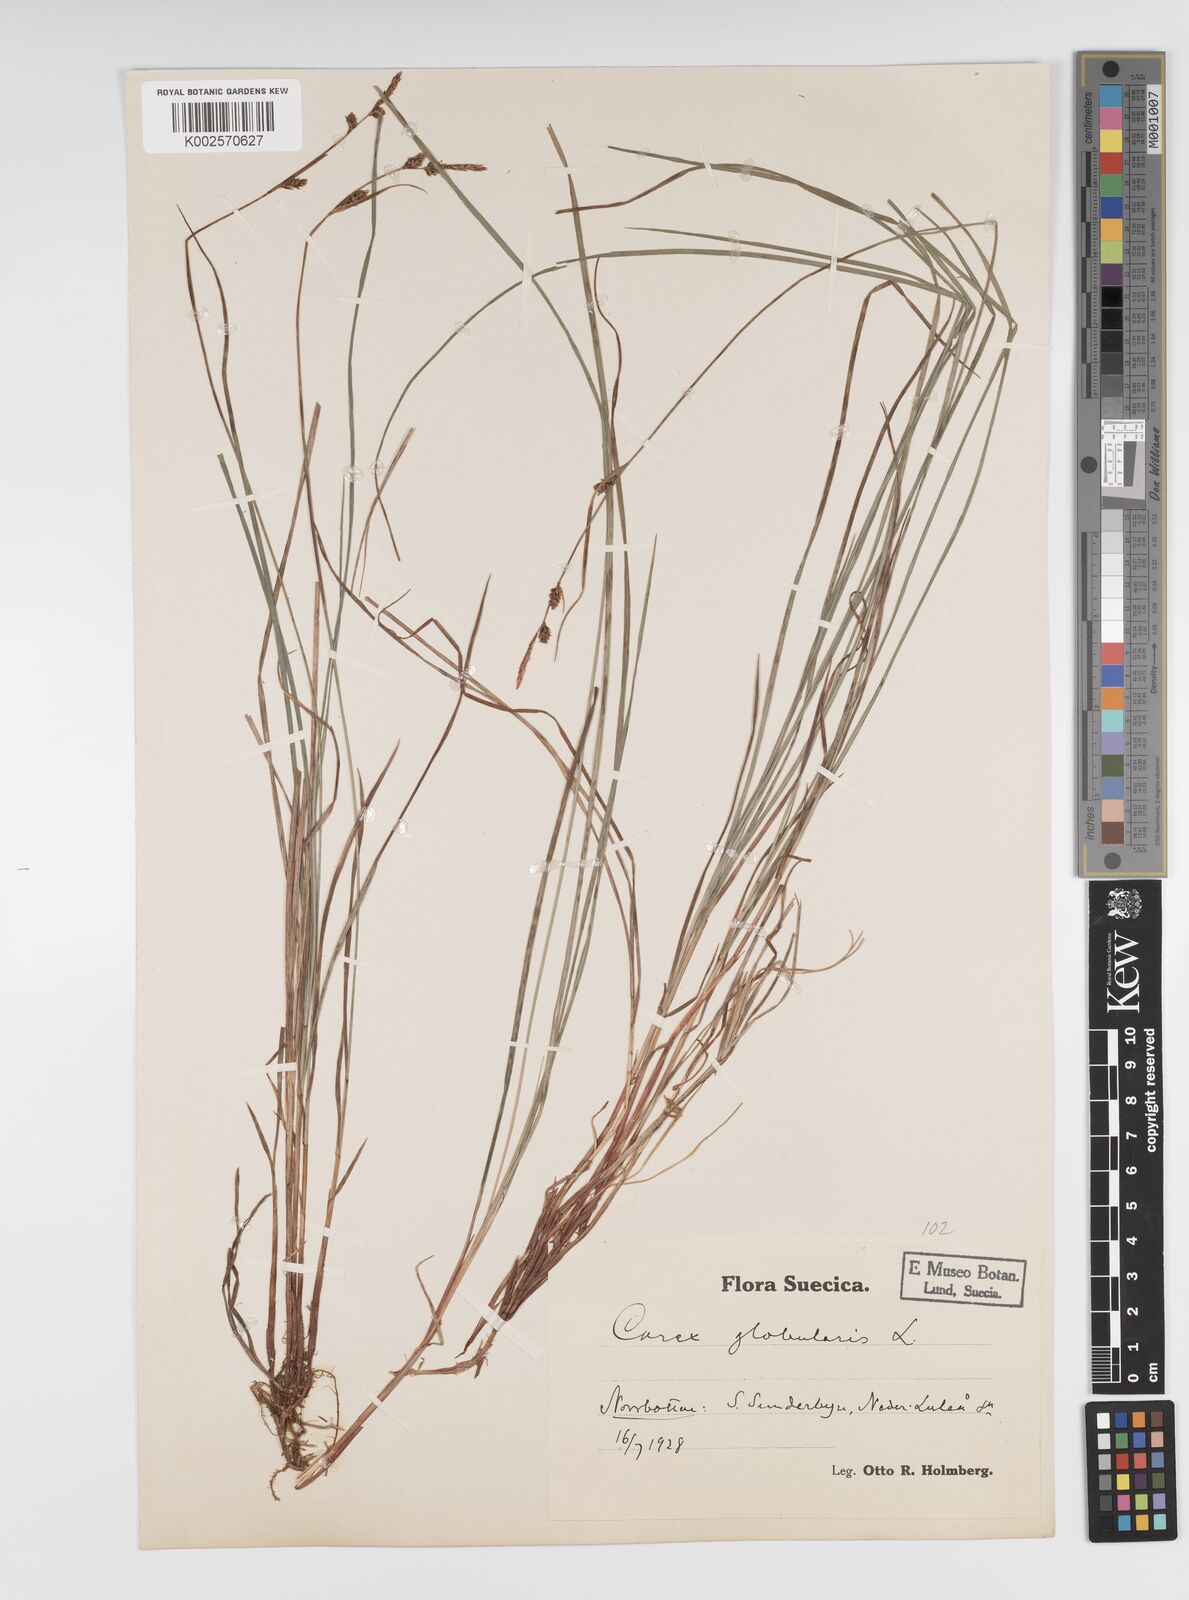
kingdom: Plantae
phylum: Tracheophyta
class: Liliopsida
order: Poales
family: Cyperaceae
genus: Carex
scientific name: Carex globularis
